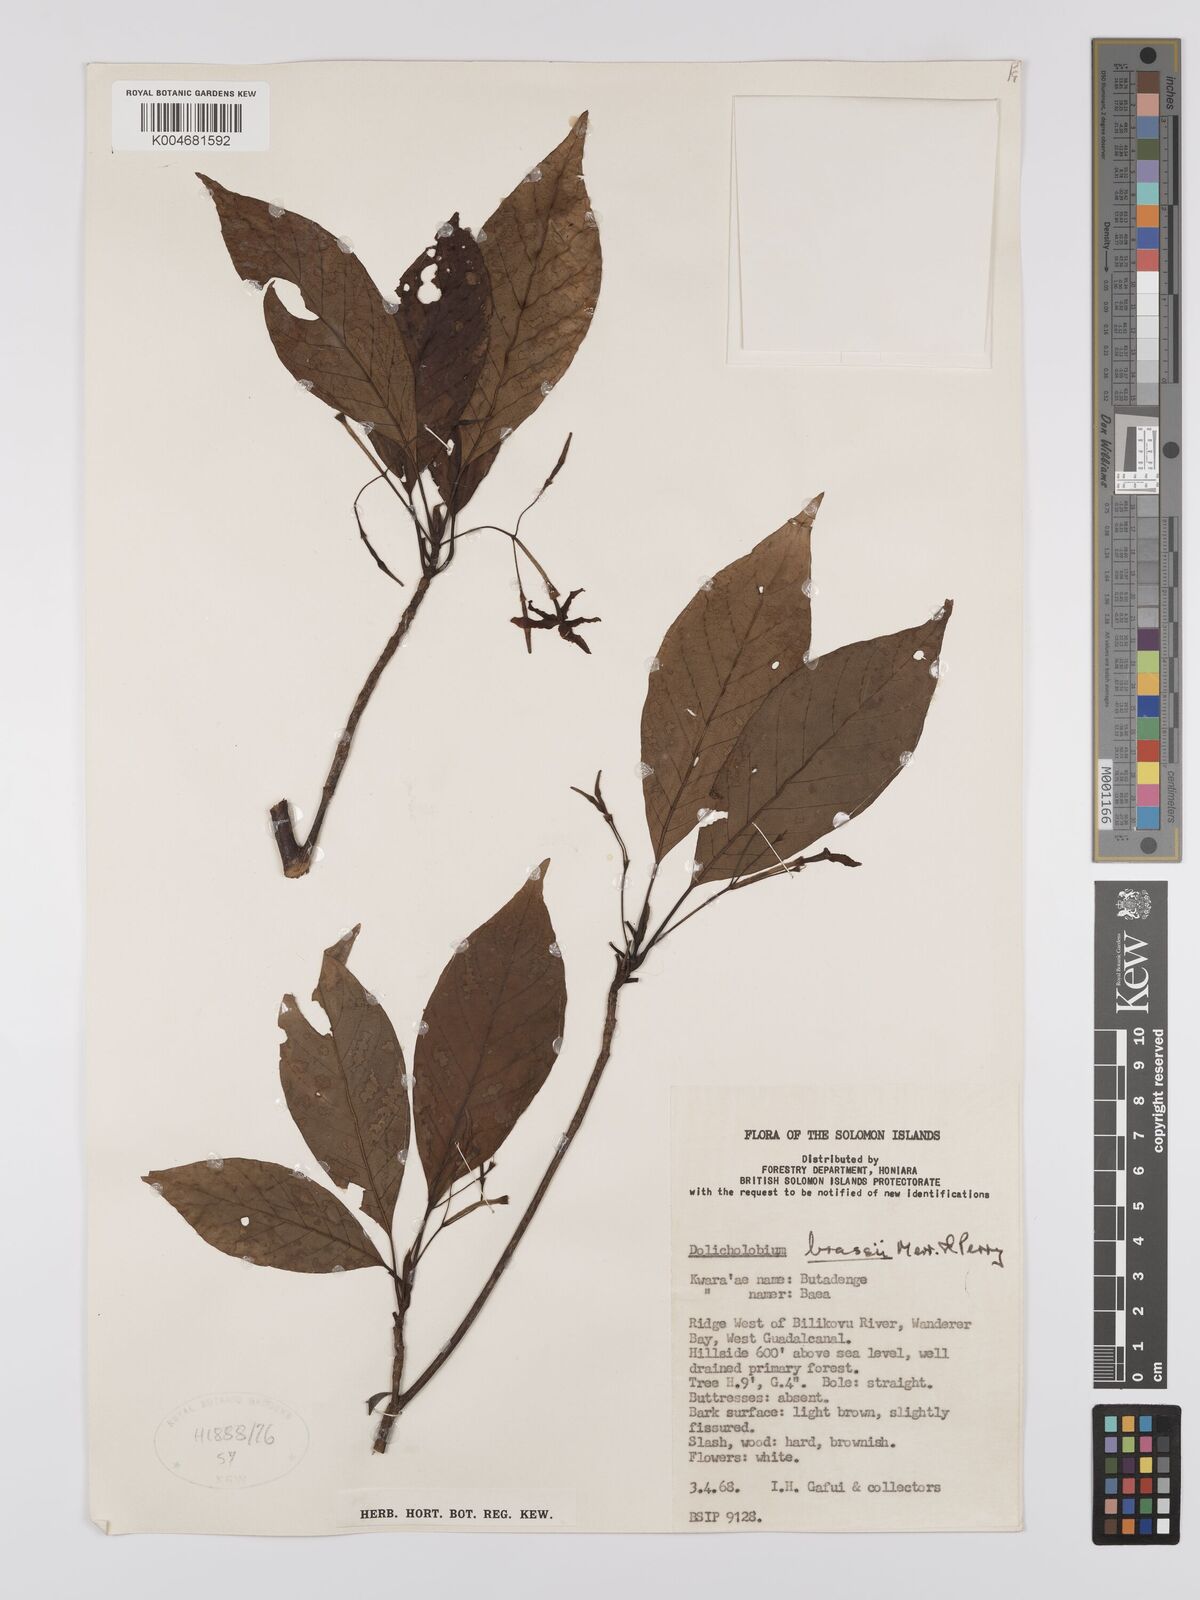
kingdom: Plantae
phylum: Tracheophyta
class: Magnoliopsida
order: Gentianales
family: Rubiaceae
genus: Dolicholobium
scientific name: Dolicholobium brassii
